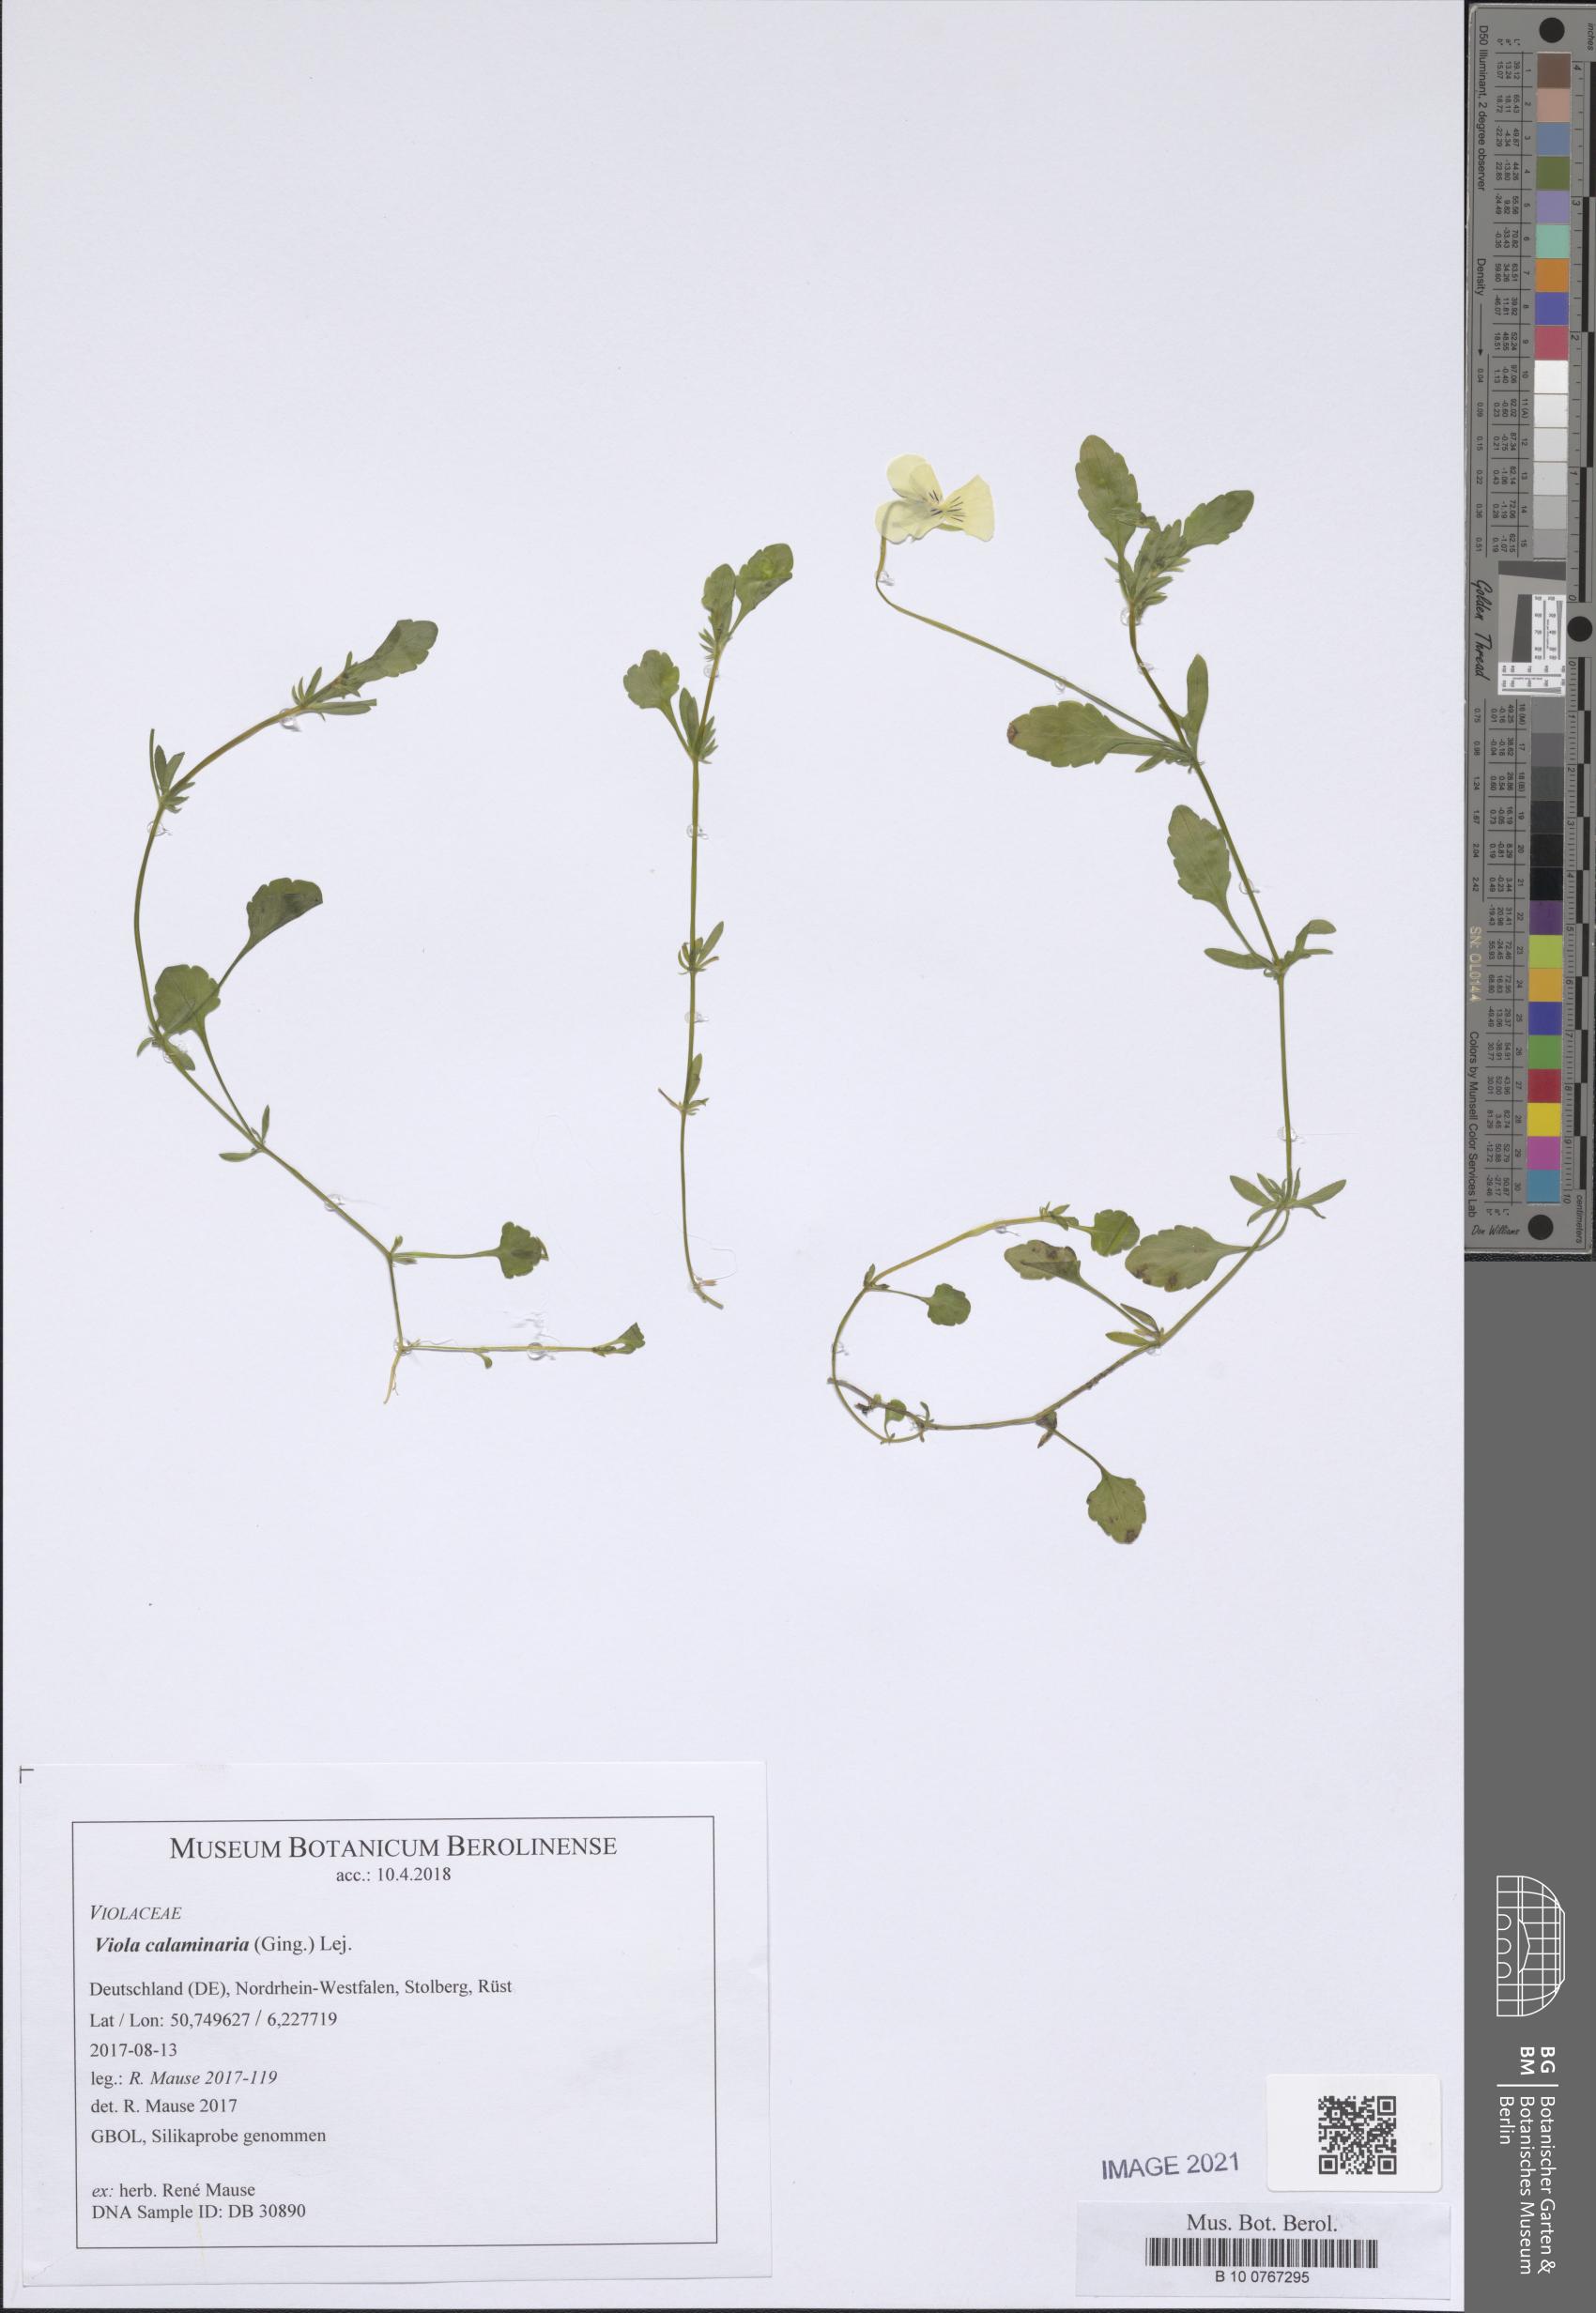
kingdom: Plantae
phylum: Tracheophyta
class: Magnoliopsida
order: Malpighiales
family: Violaceae
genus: Viola
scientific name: Viola lutea
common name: Mountain pansy
